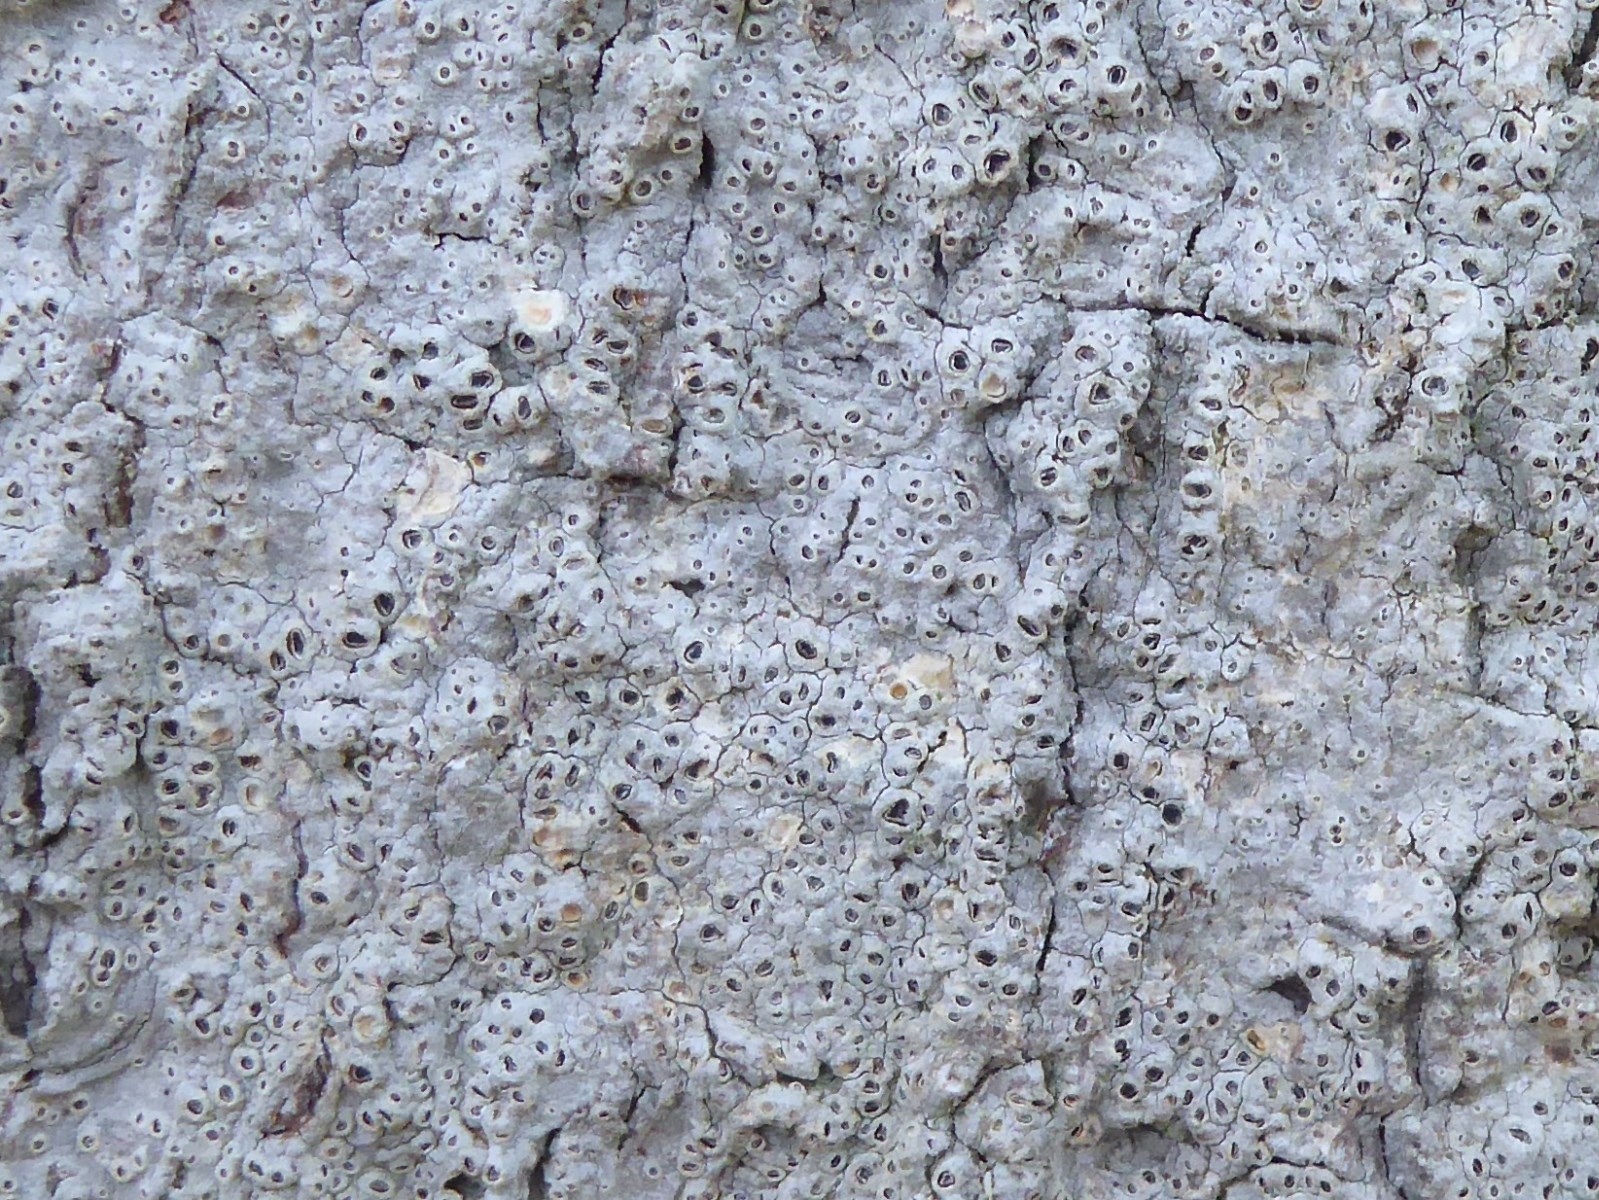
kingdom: Fungi
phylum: Ascomycota
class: Lecanoromycetes
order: Ostropales
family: Graphidaceae
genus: Thelotrema
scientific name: Thelotrema lepadinum
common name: almindelig slørkantlav
